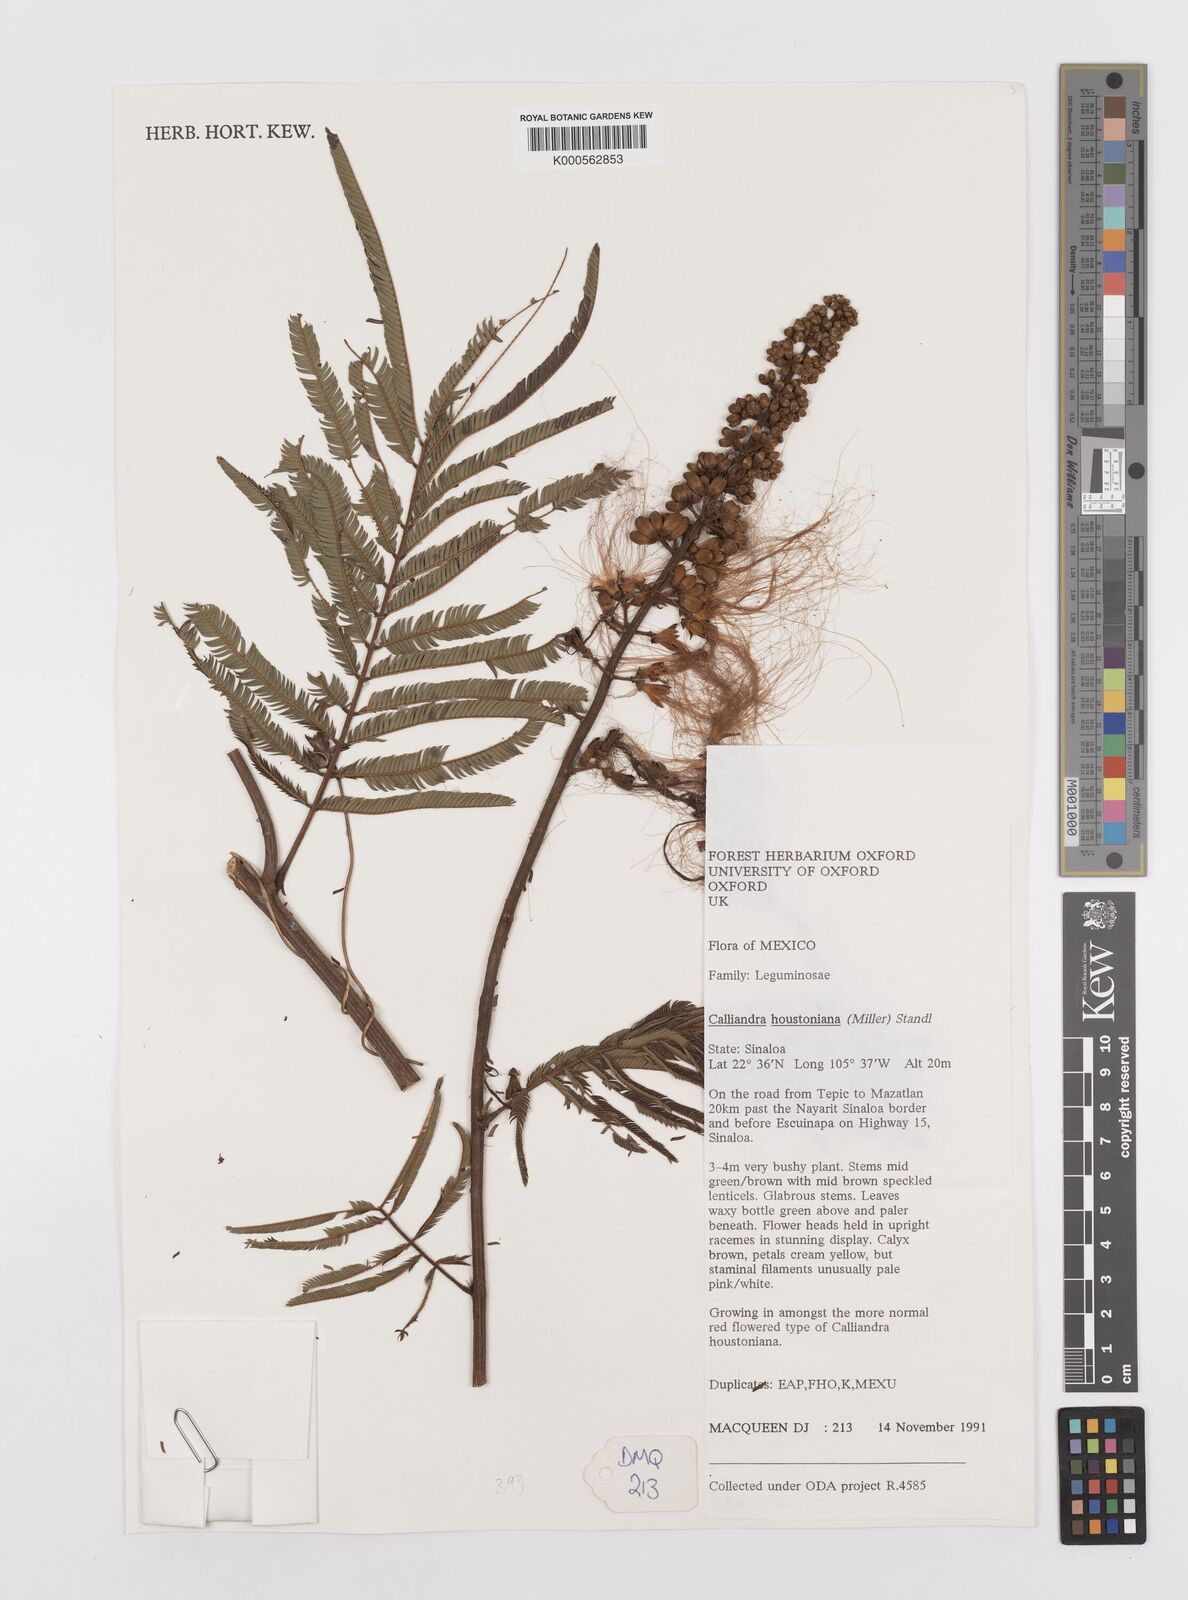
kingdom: Plantae
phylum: Tracheophyta
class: Magnoliopsida
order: Fabales
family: Fabaceae
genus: Calliandra
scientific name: Calliandra houstoniana
